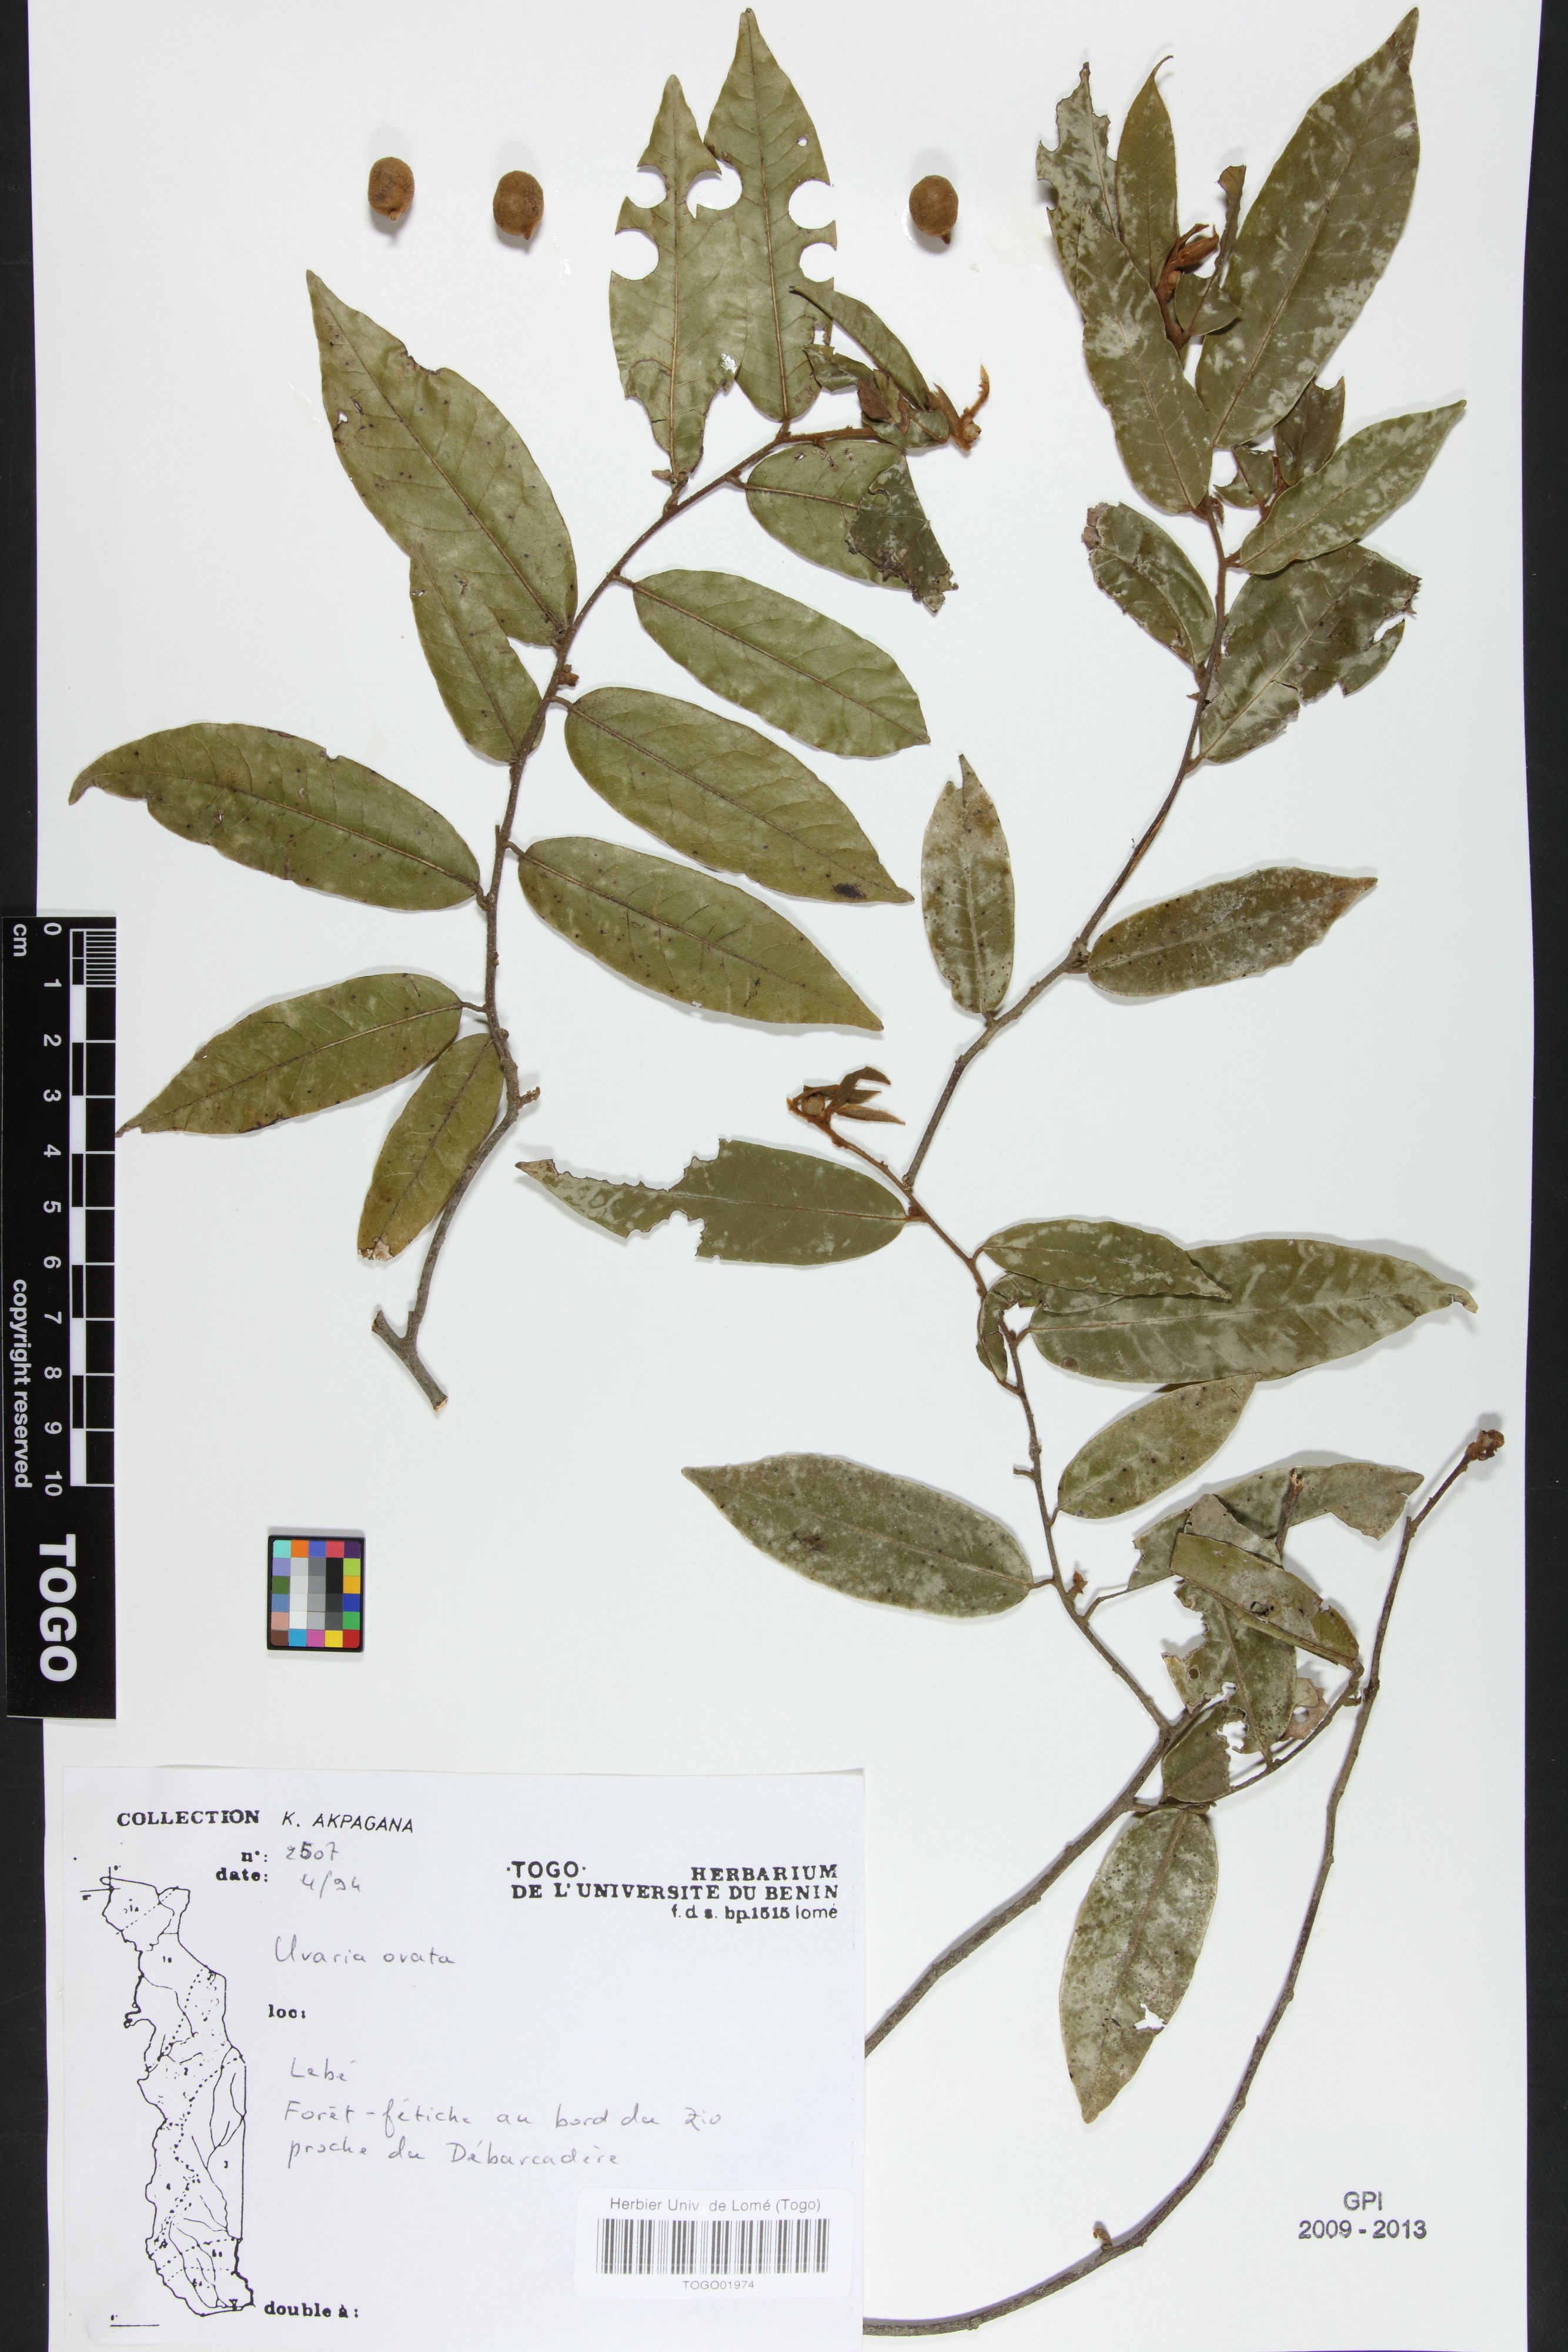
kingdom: Plantae
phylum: Tracheophyta
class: Magnoliopsida
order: Magnoliales
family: Annonaceae
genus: Uvaria
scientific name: Uvaria ovata
